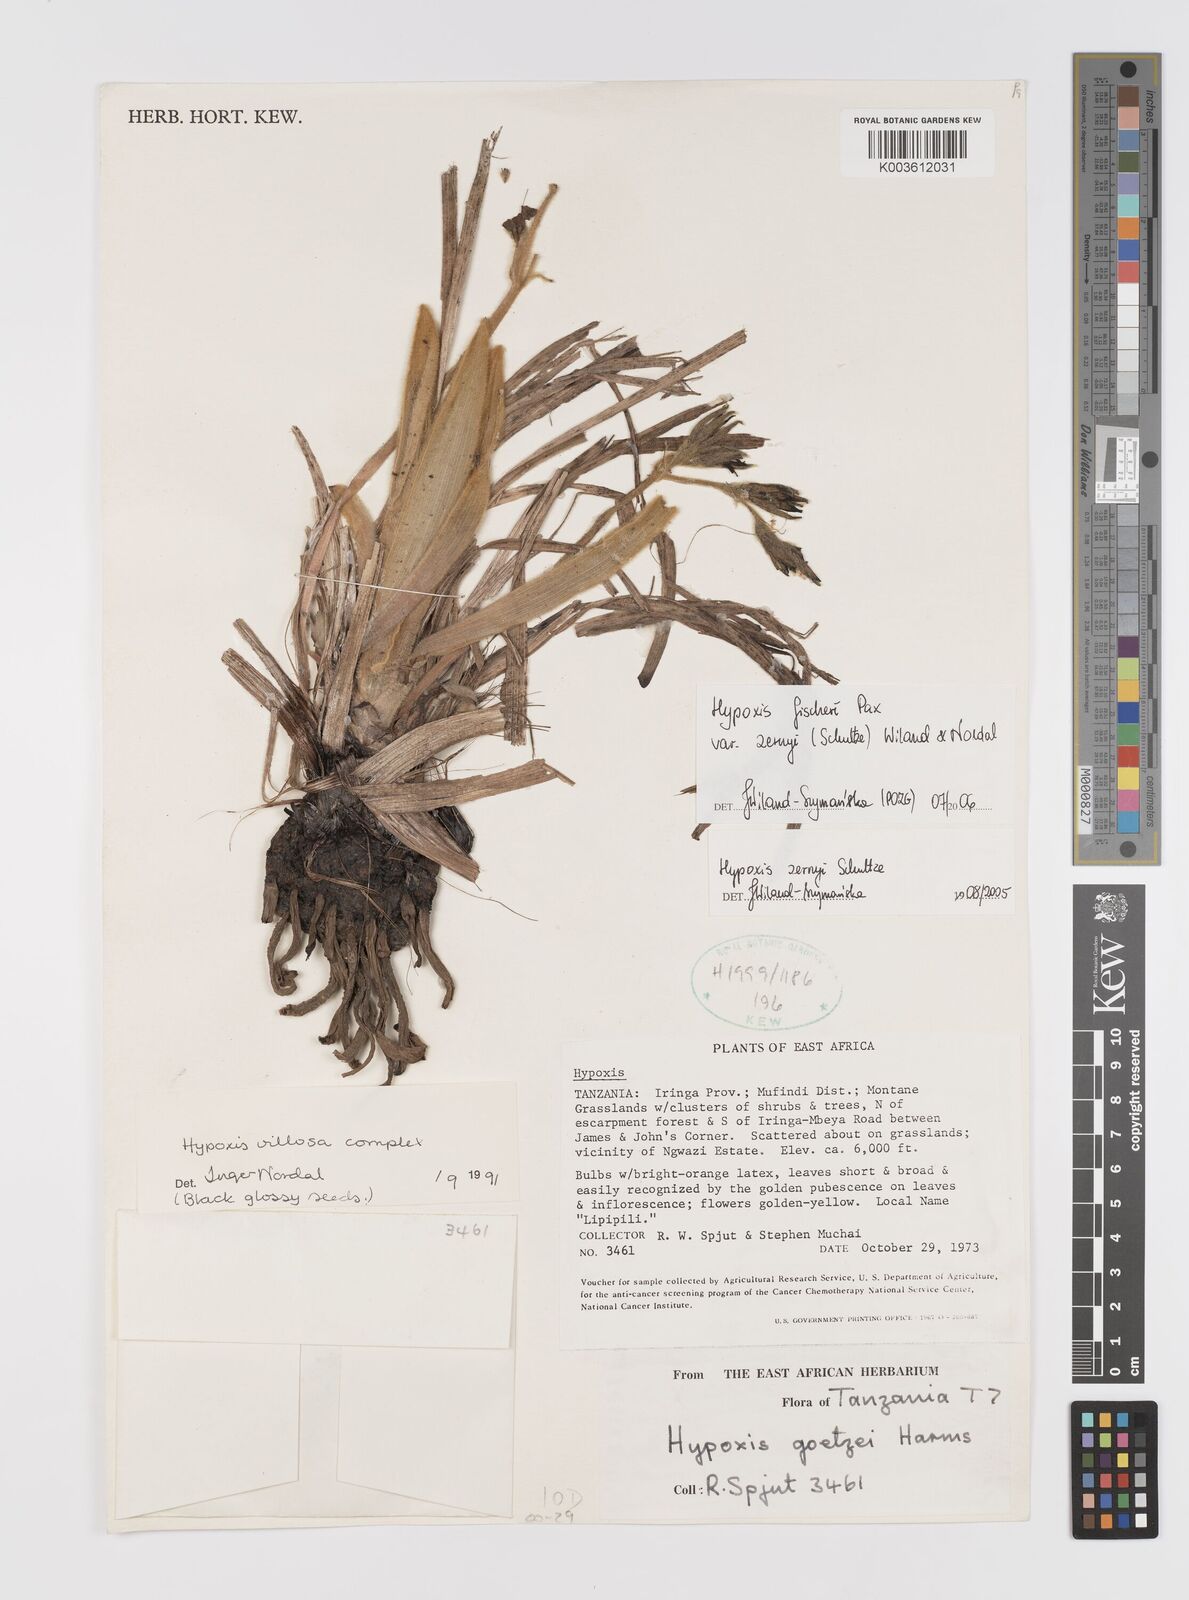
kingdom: Plantae
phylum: Tracheophyta
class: Liliopsida
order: Asparagales
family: Hypoxidaceae
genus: Hypoxis
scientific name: Hypoxis fischeri
